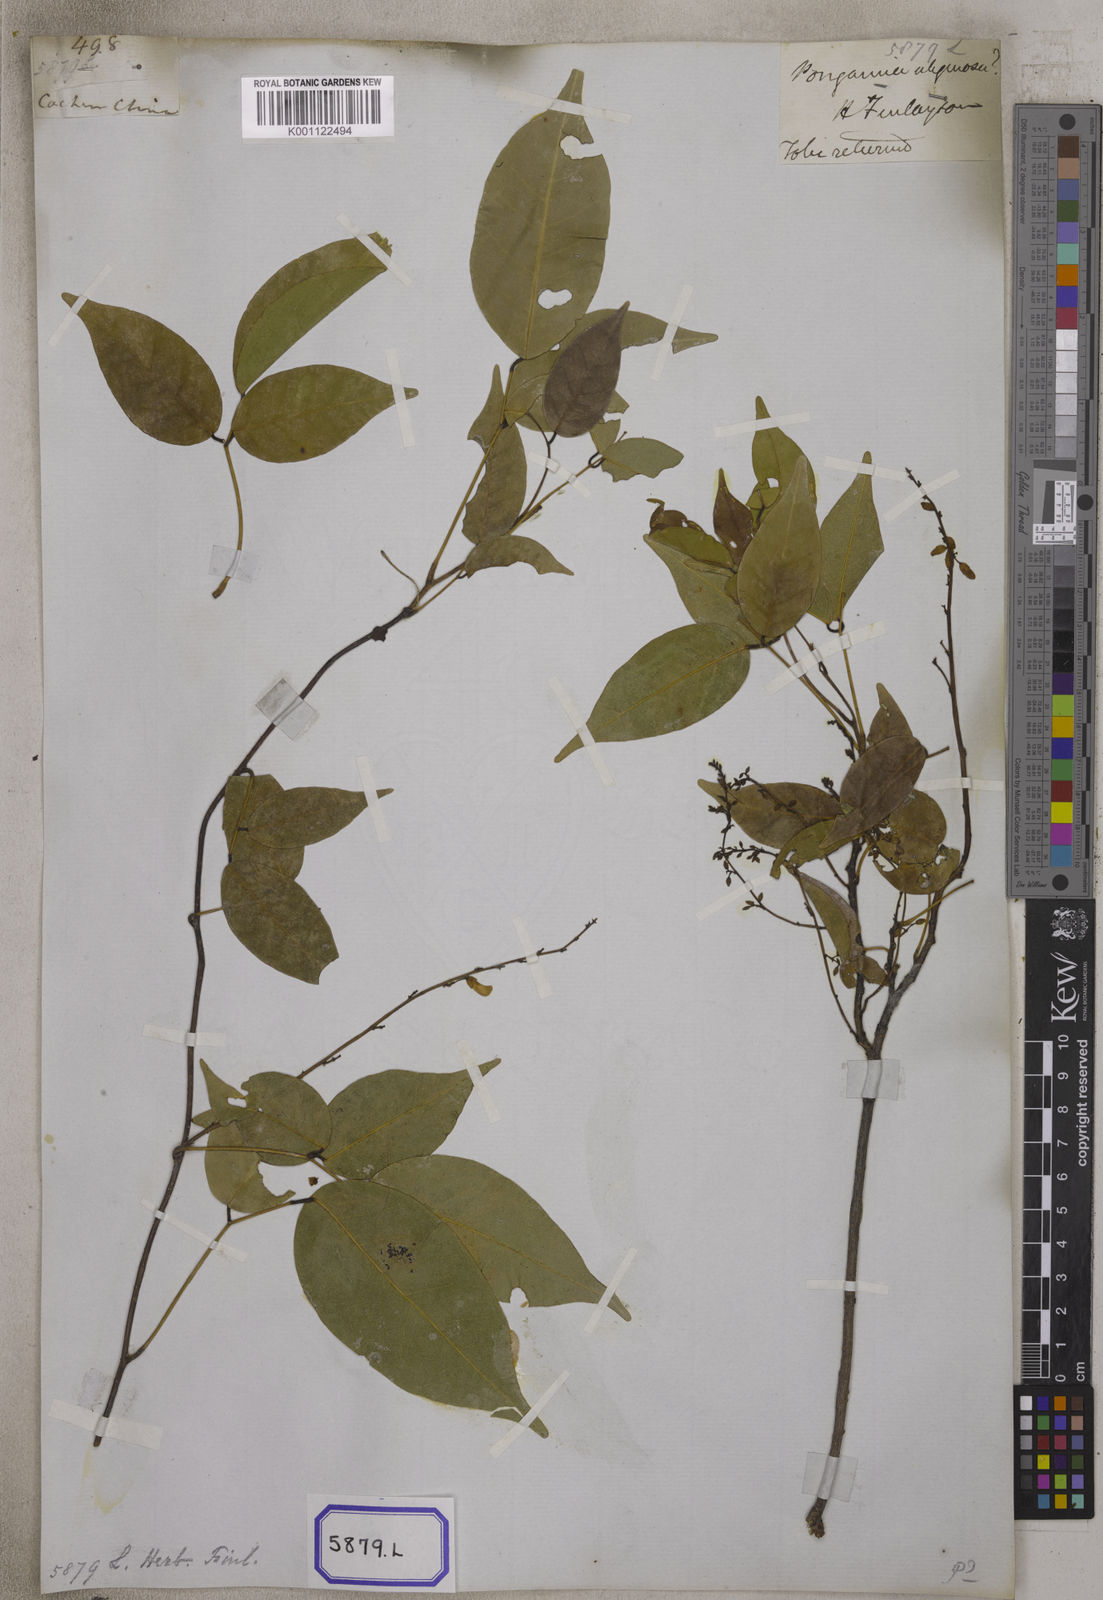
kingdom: Plantae
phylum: Tracheophyta
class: Magnoliopsida
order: Fabales
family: Fabaceae
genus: Derris
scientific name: Derris trifoliata
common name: Three-leaf derris
